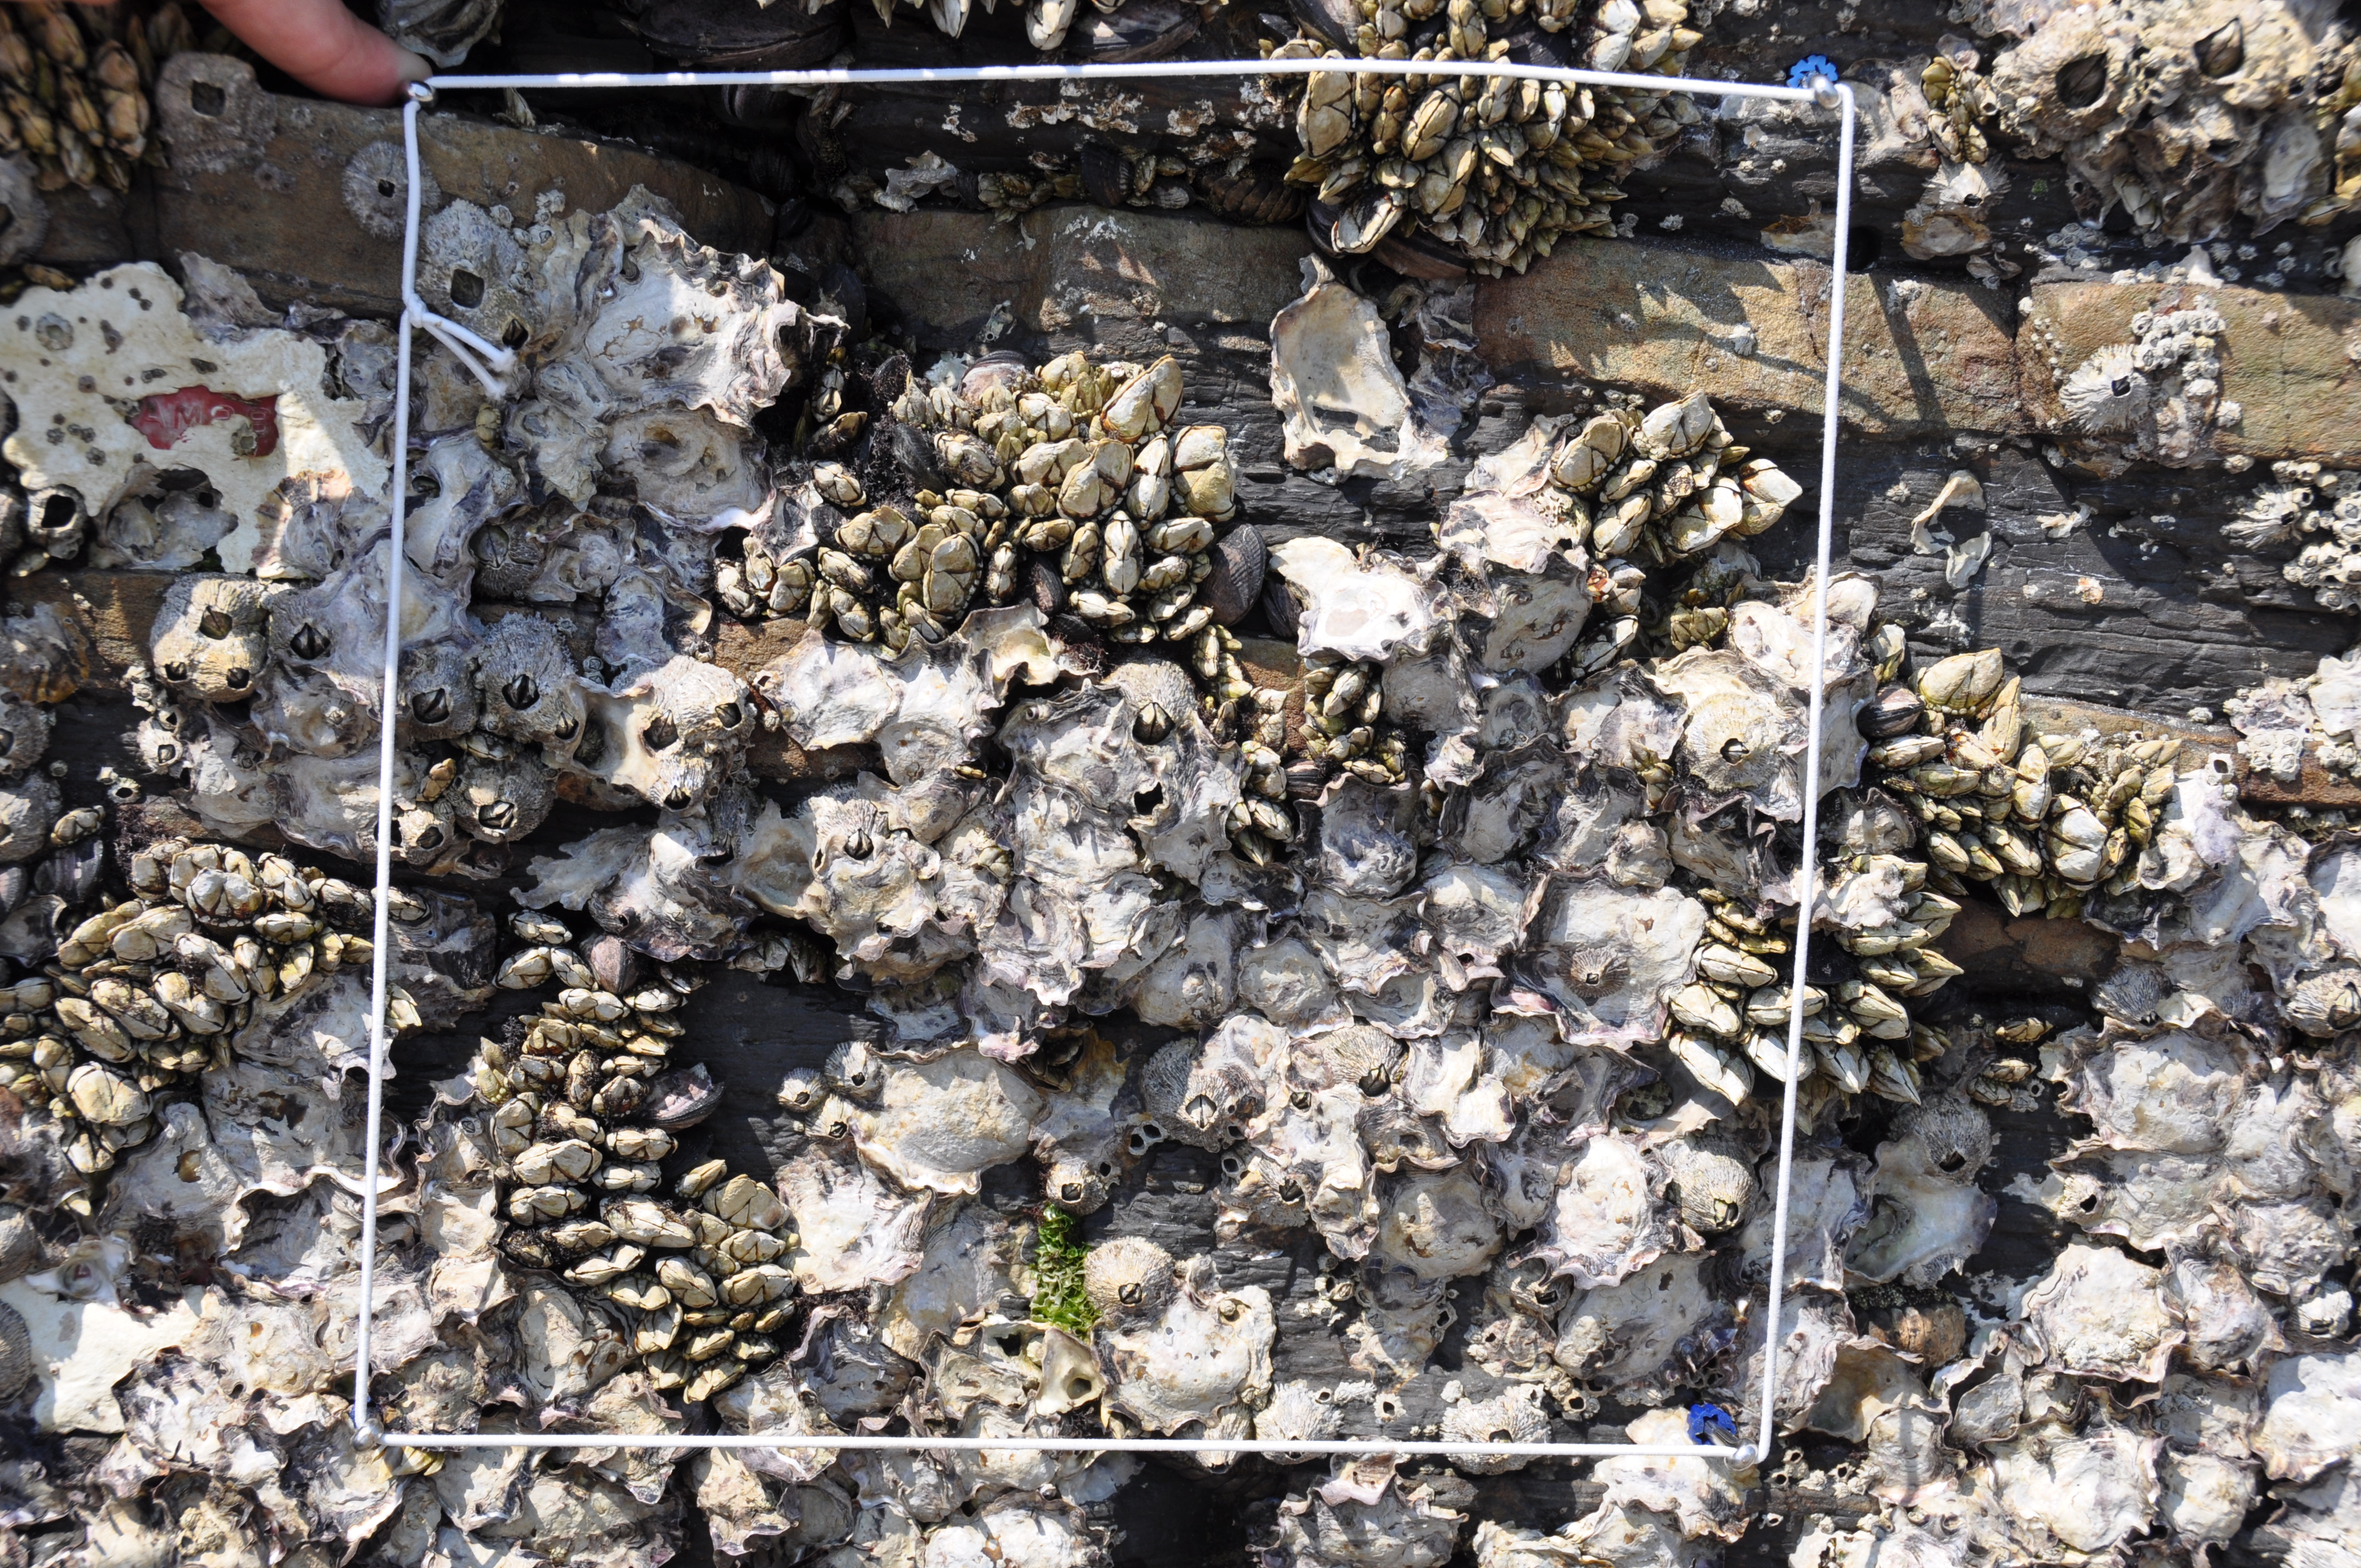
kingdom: Animalia
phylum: Arthropoda
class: Maxillopoda
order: Sessilia
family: Chthamalidae
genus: Chthamalus
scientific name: Chthamalus challengeri
